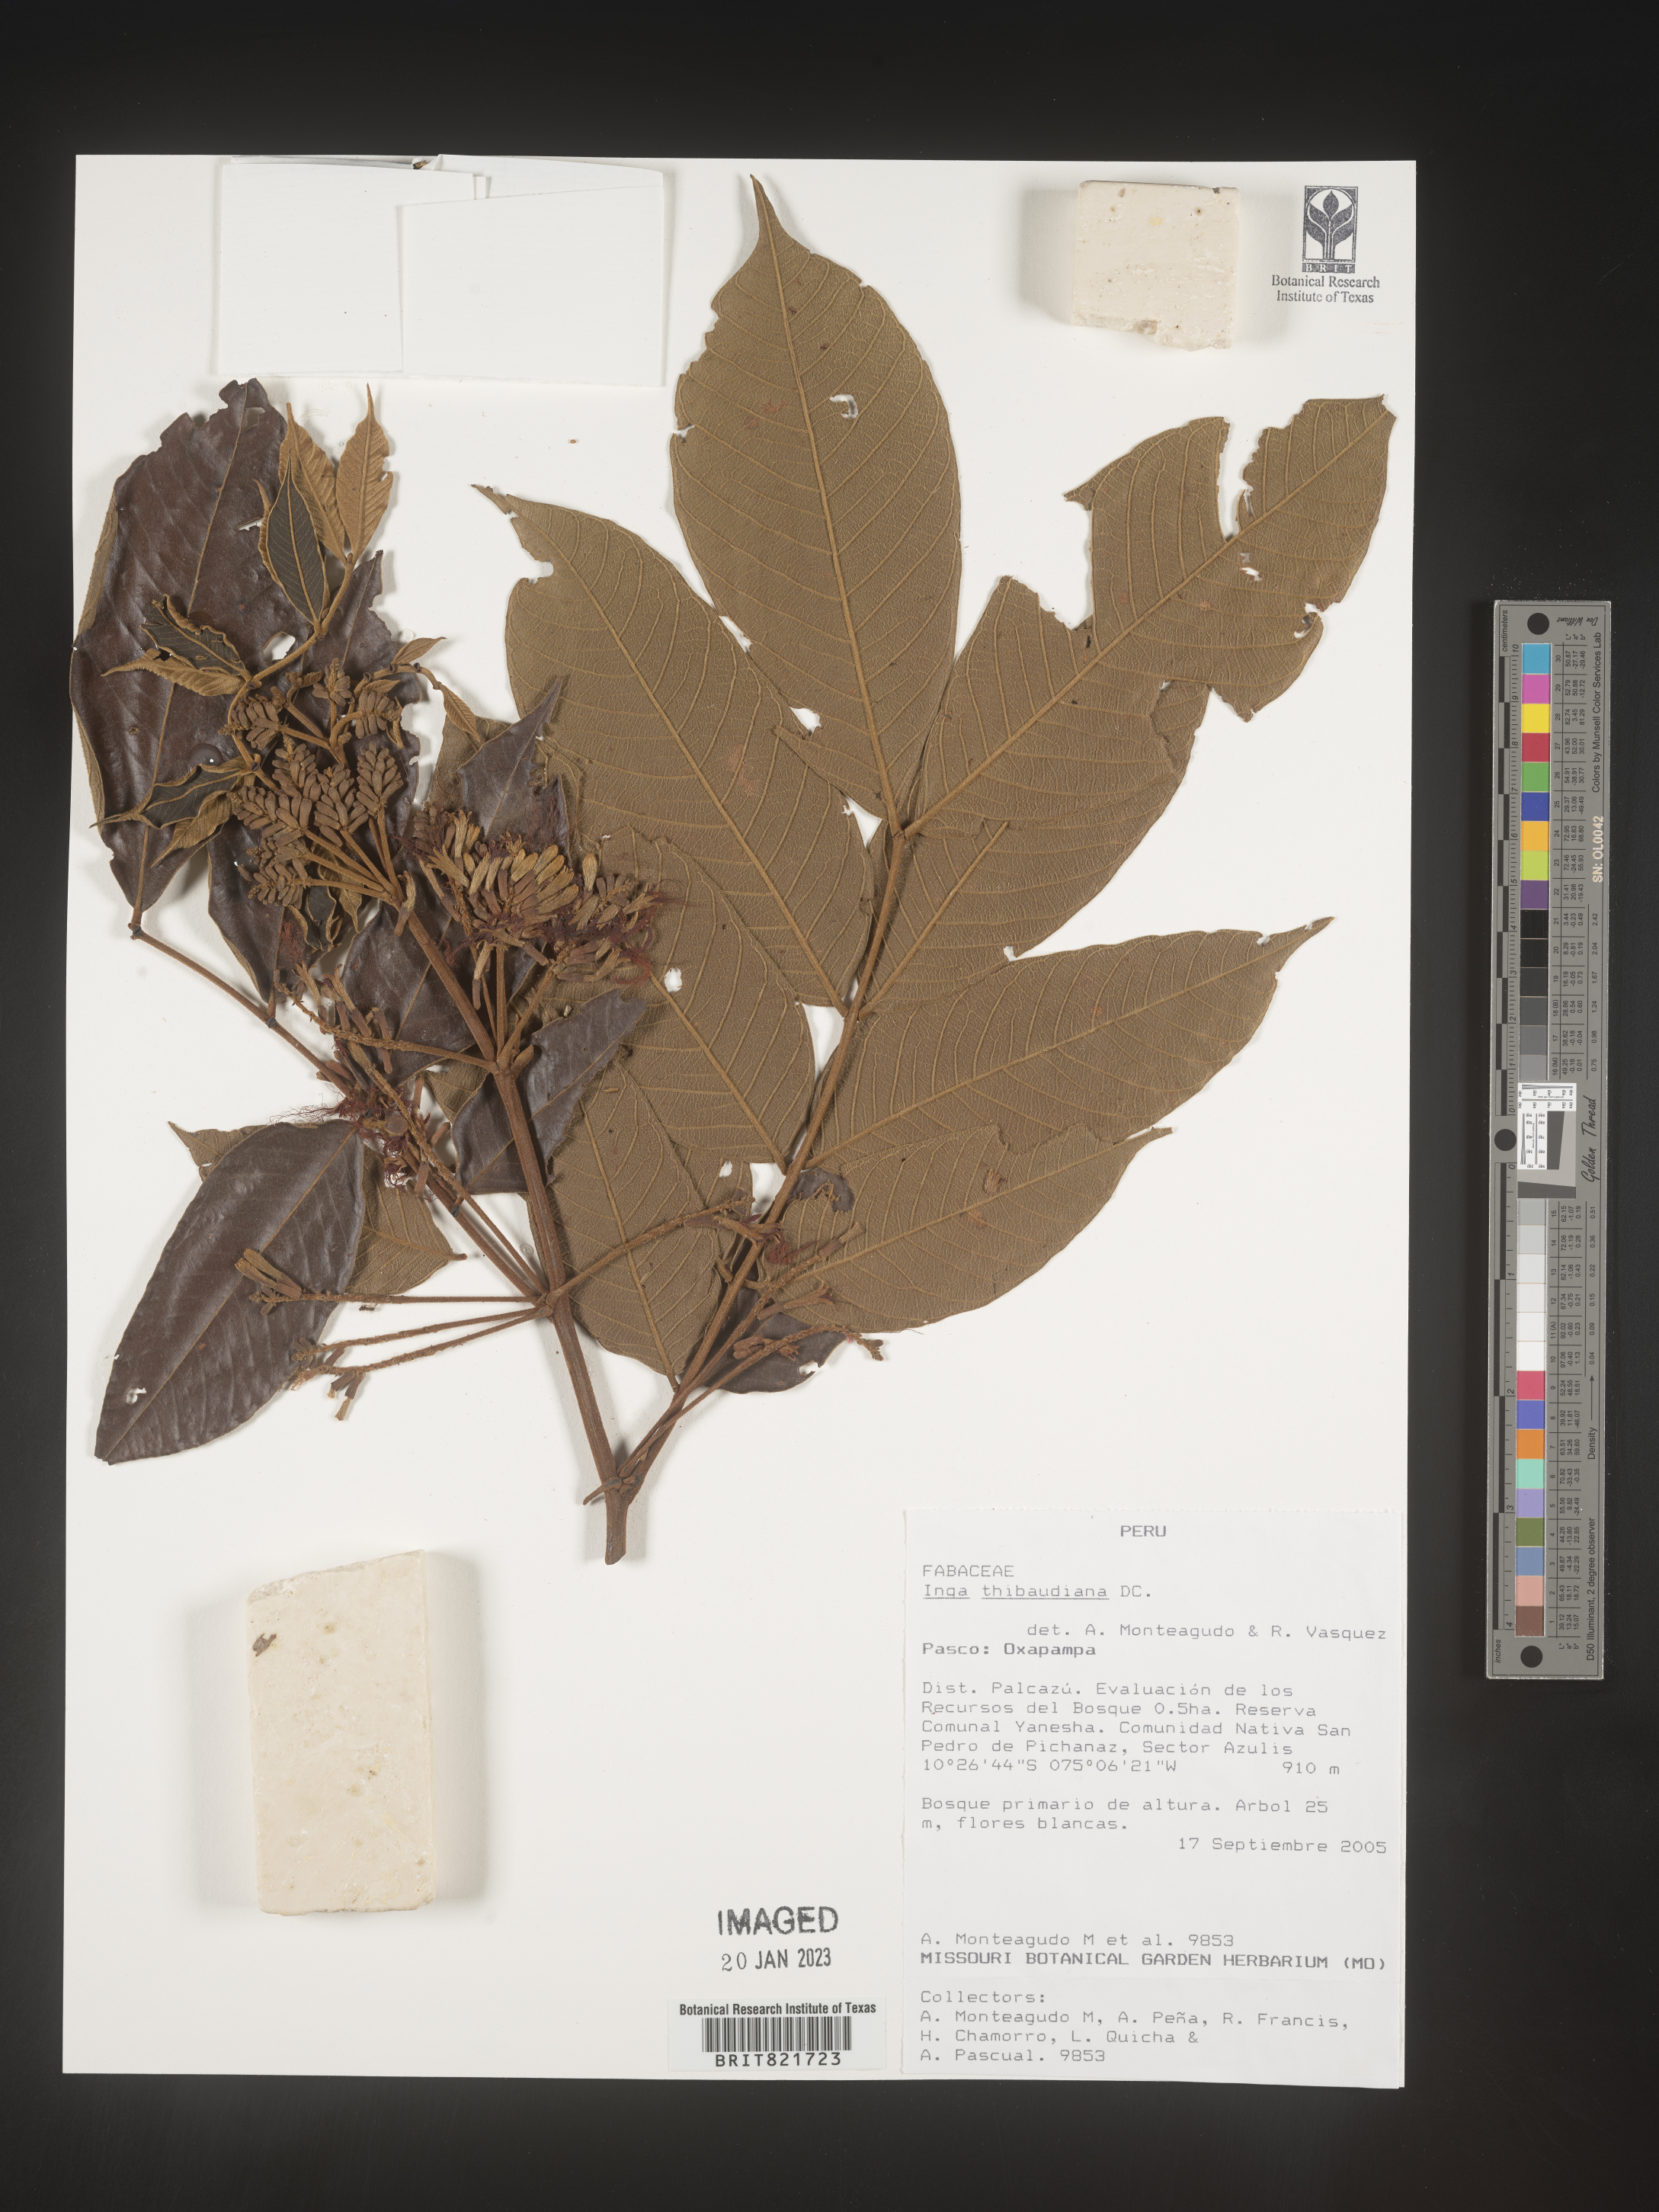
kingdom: Plantae
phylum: Tracheophyta
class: Magnoliopsida
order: Fabales
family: Fabaceae
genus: Inga
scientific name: Inga
